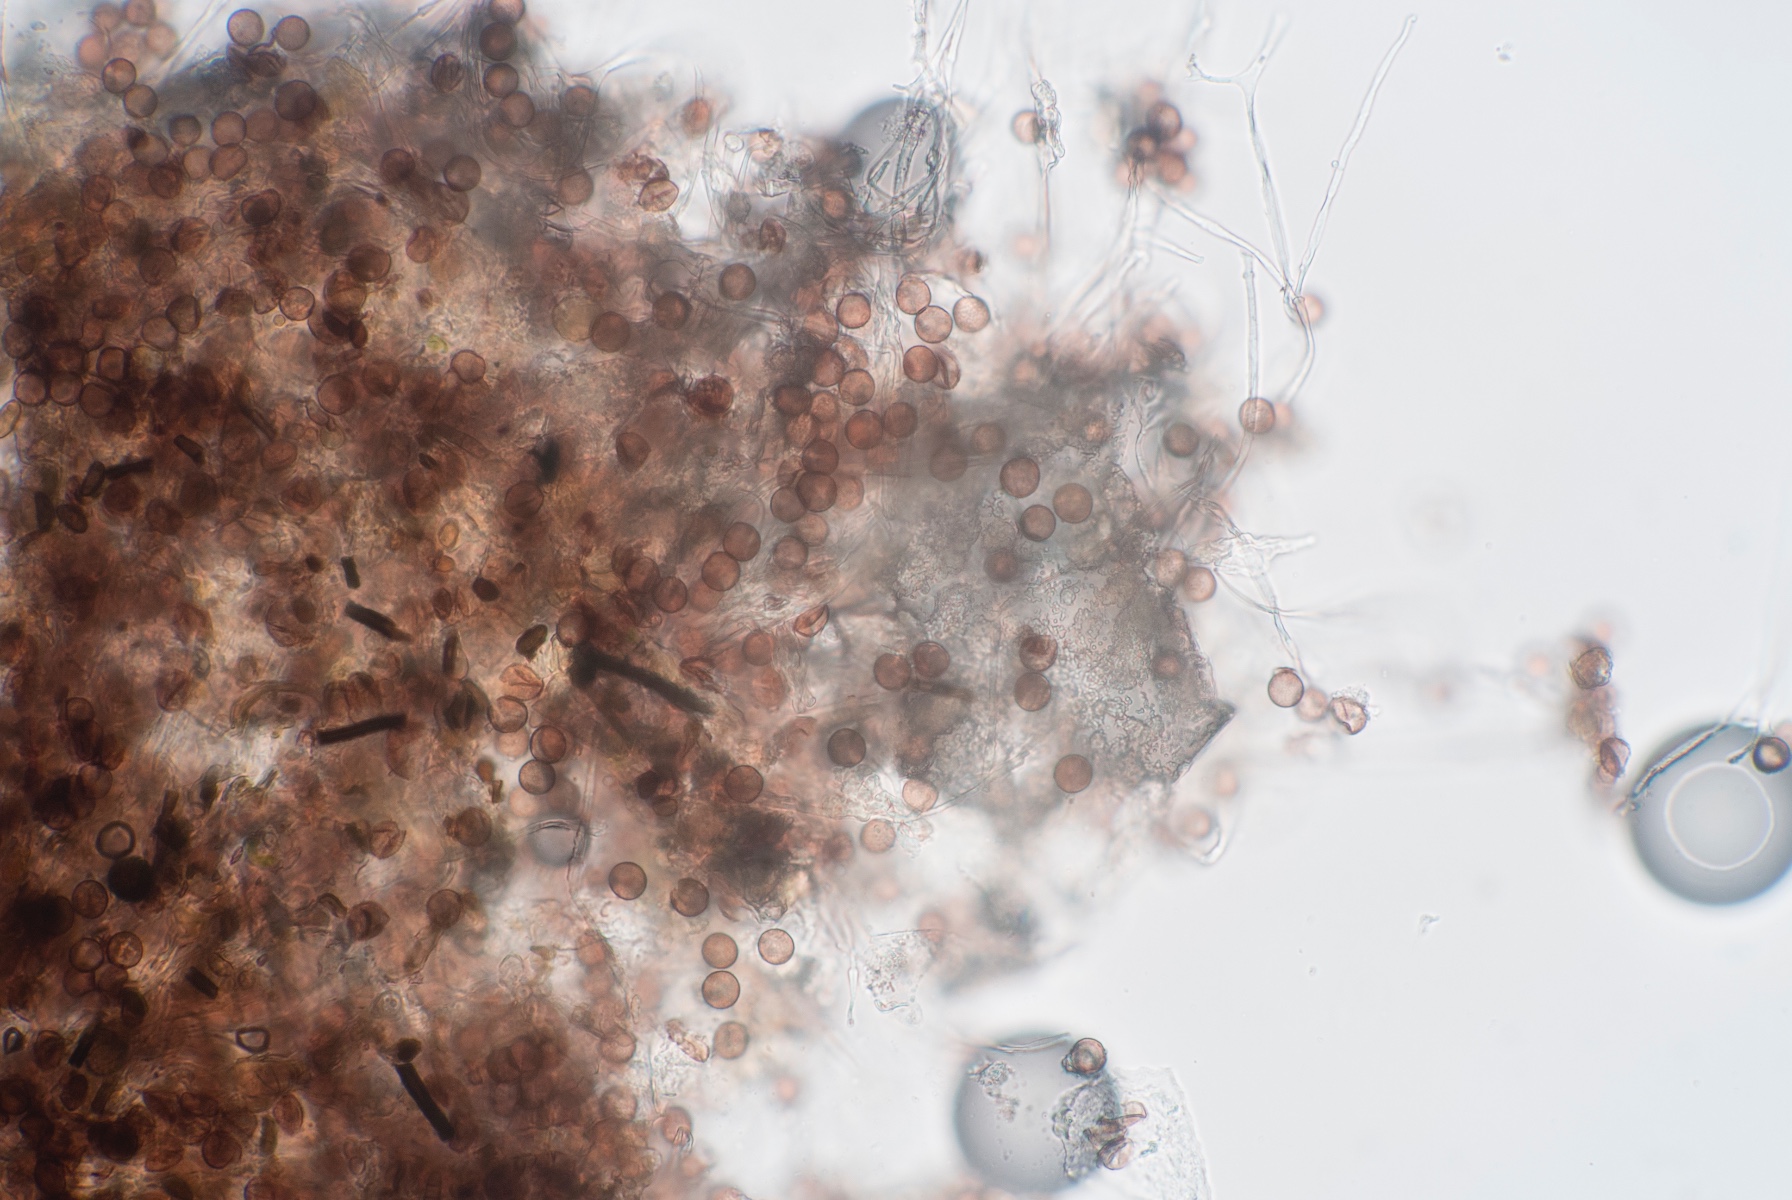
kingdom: Protozoa
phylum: Mycetozoa
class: Myxomycetes
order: Physarales
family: Physaraceae
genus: Physarum
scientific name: Physarum album
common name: nikkende støvknop
